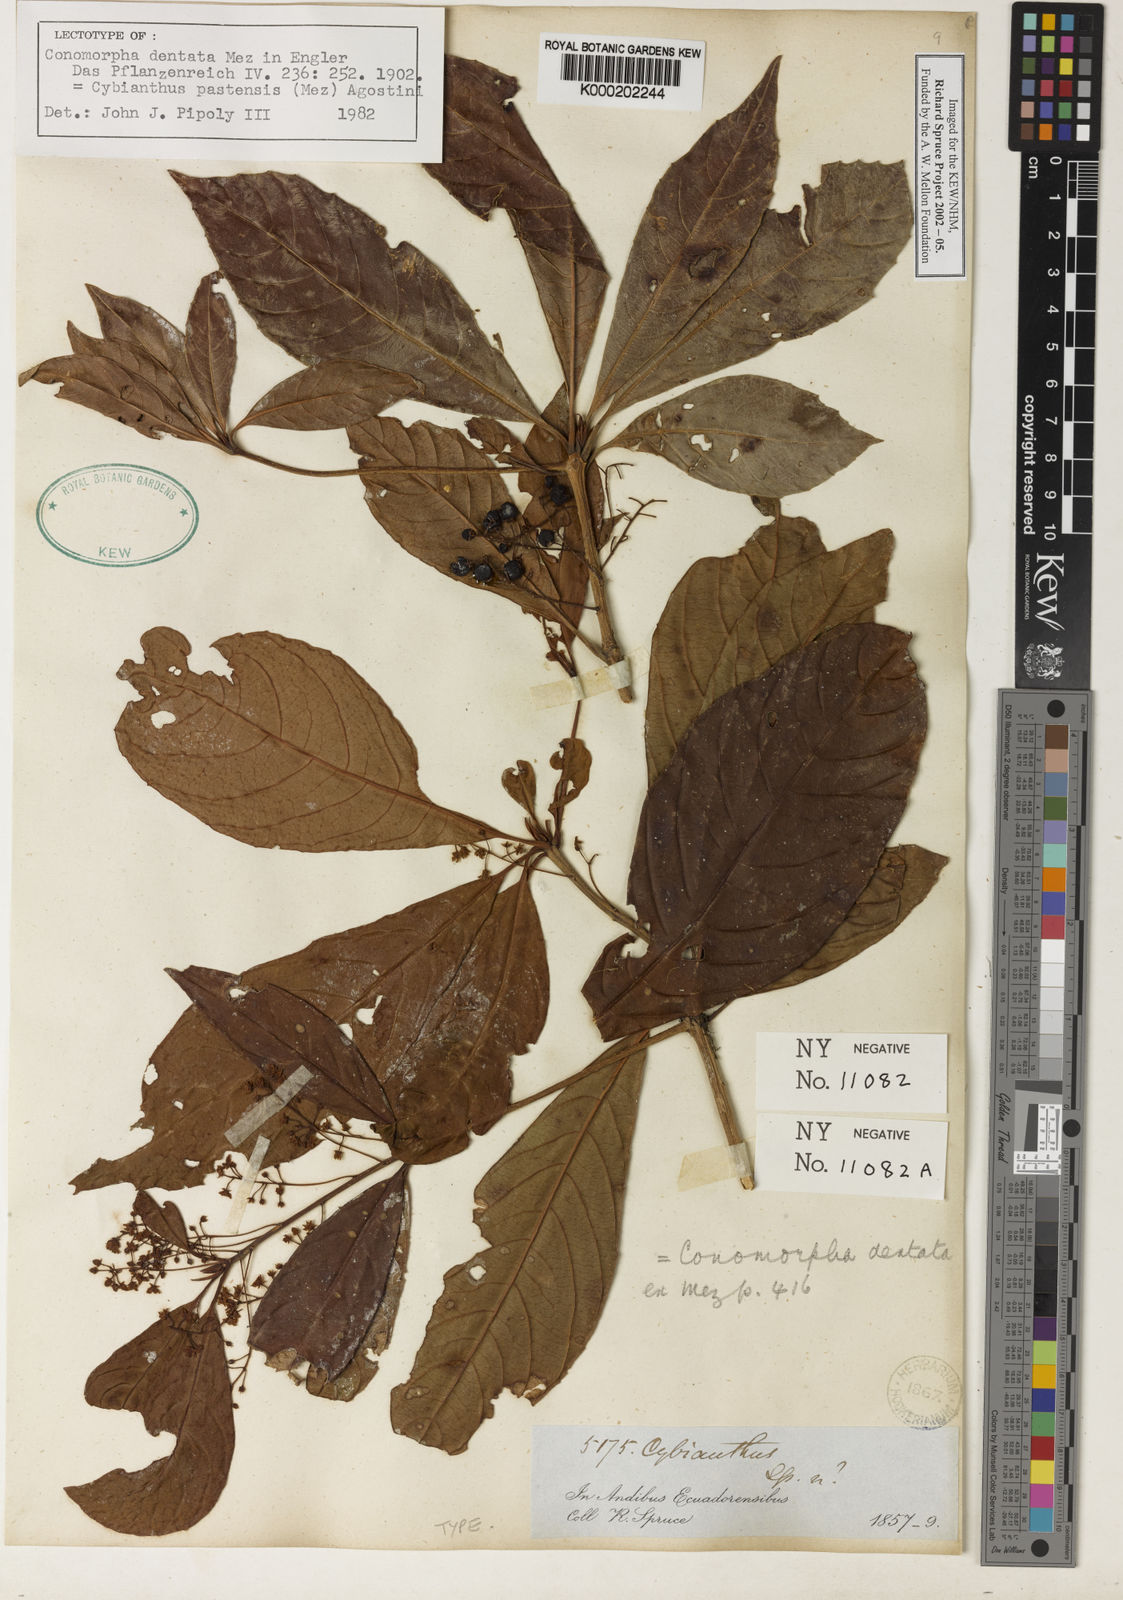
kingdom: Plantae
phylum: Tracheophyta
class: Magnoliopsida
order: Ericales
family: Primulaceae
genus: Cybianthus
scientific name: Cybianthus pastensis
